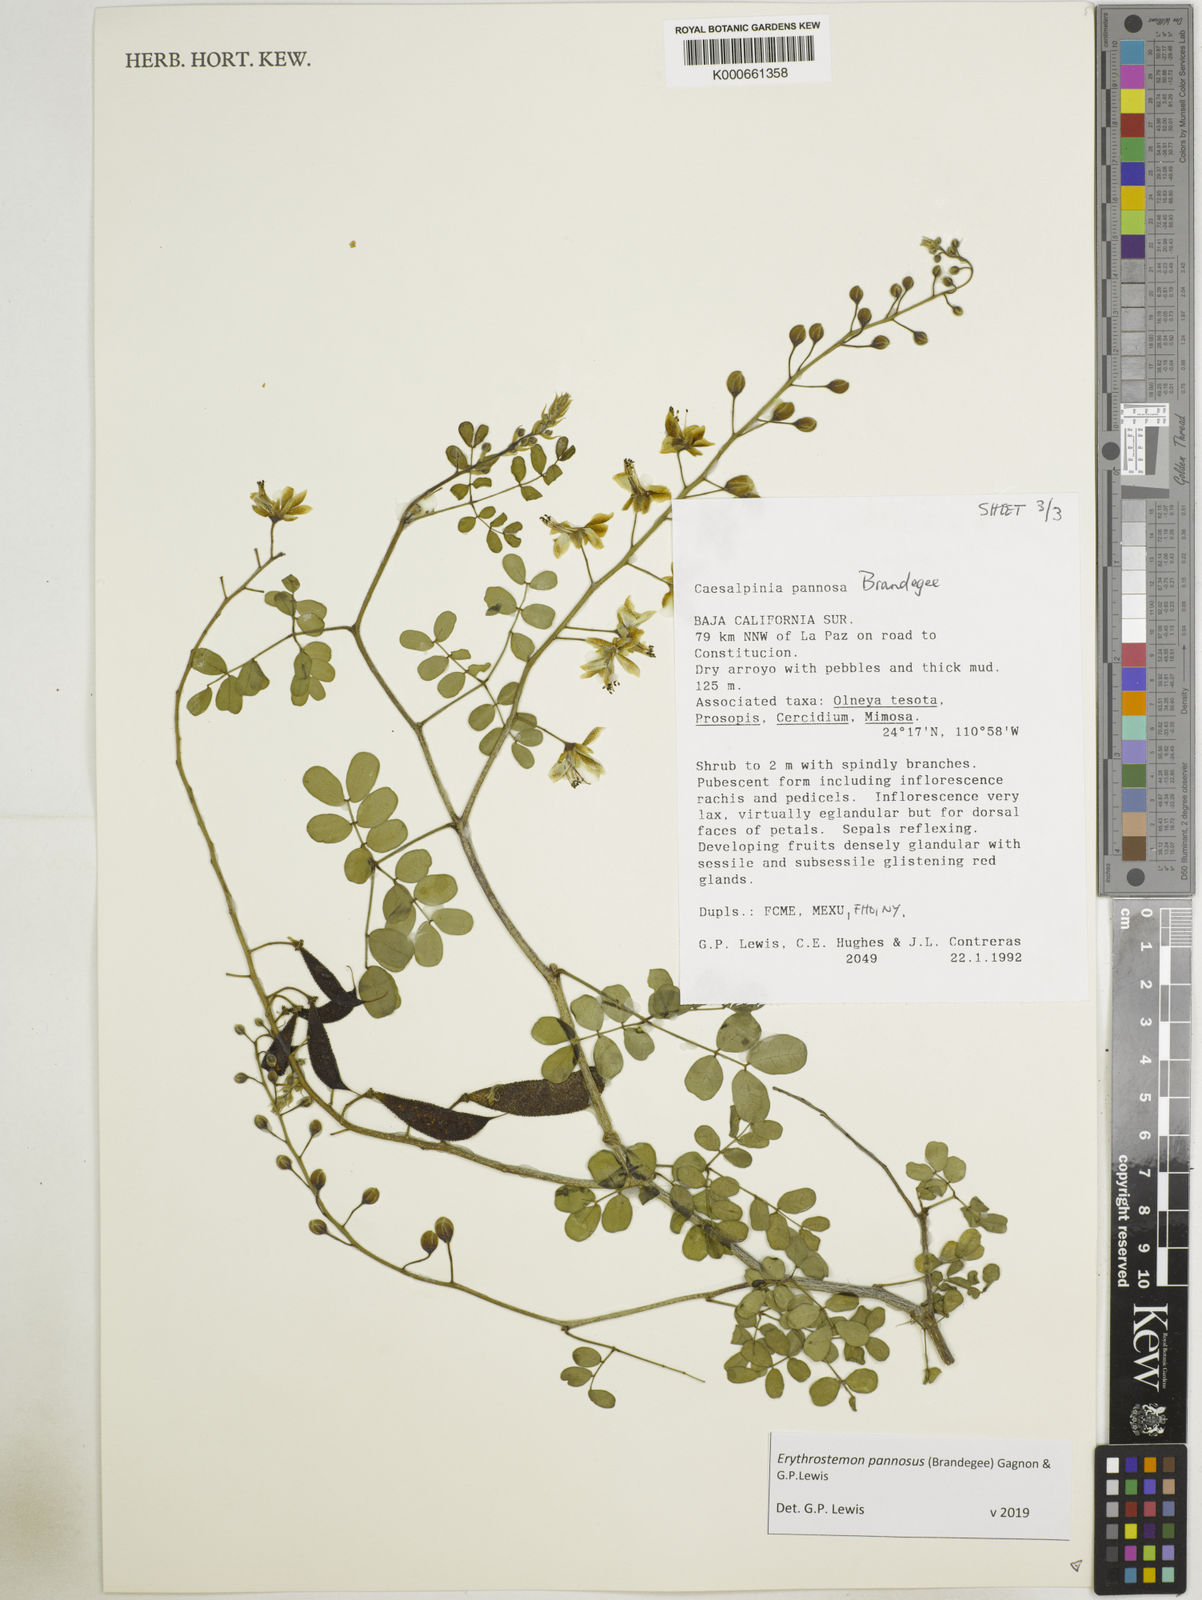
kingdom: Plantae
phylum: Tracheophyta
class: Magnoliopsida
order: Fabales
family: Fabaceae
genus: Erythrostemon
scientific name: Erythrostemon pannosus
